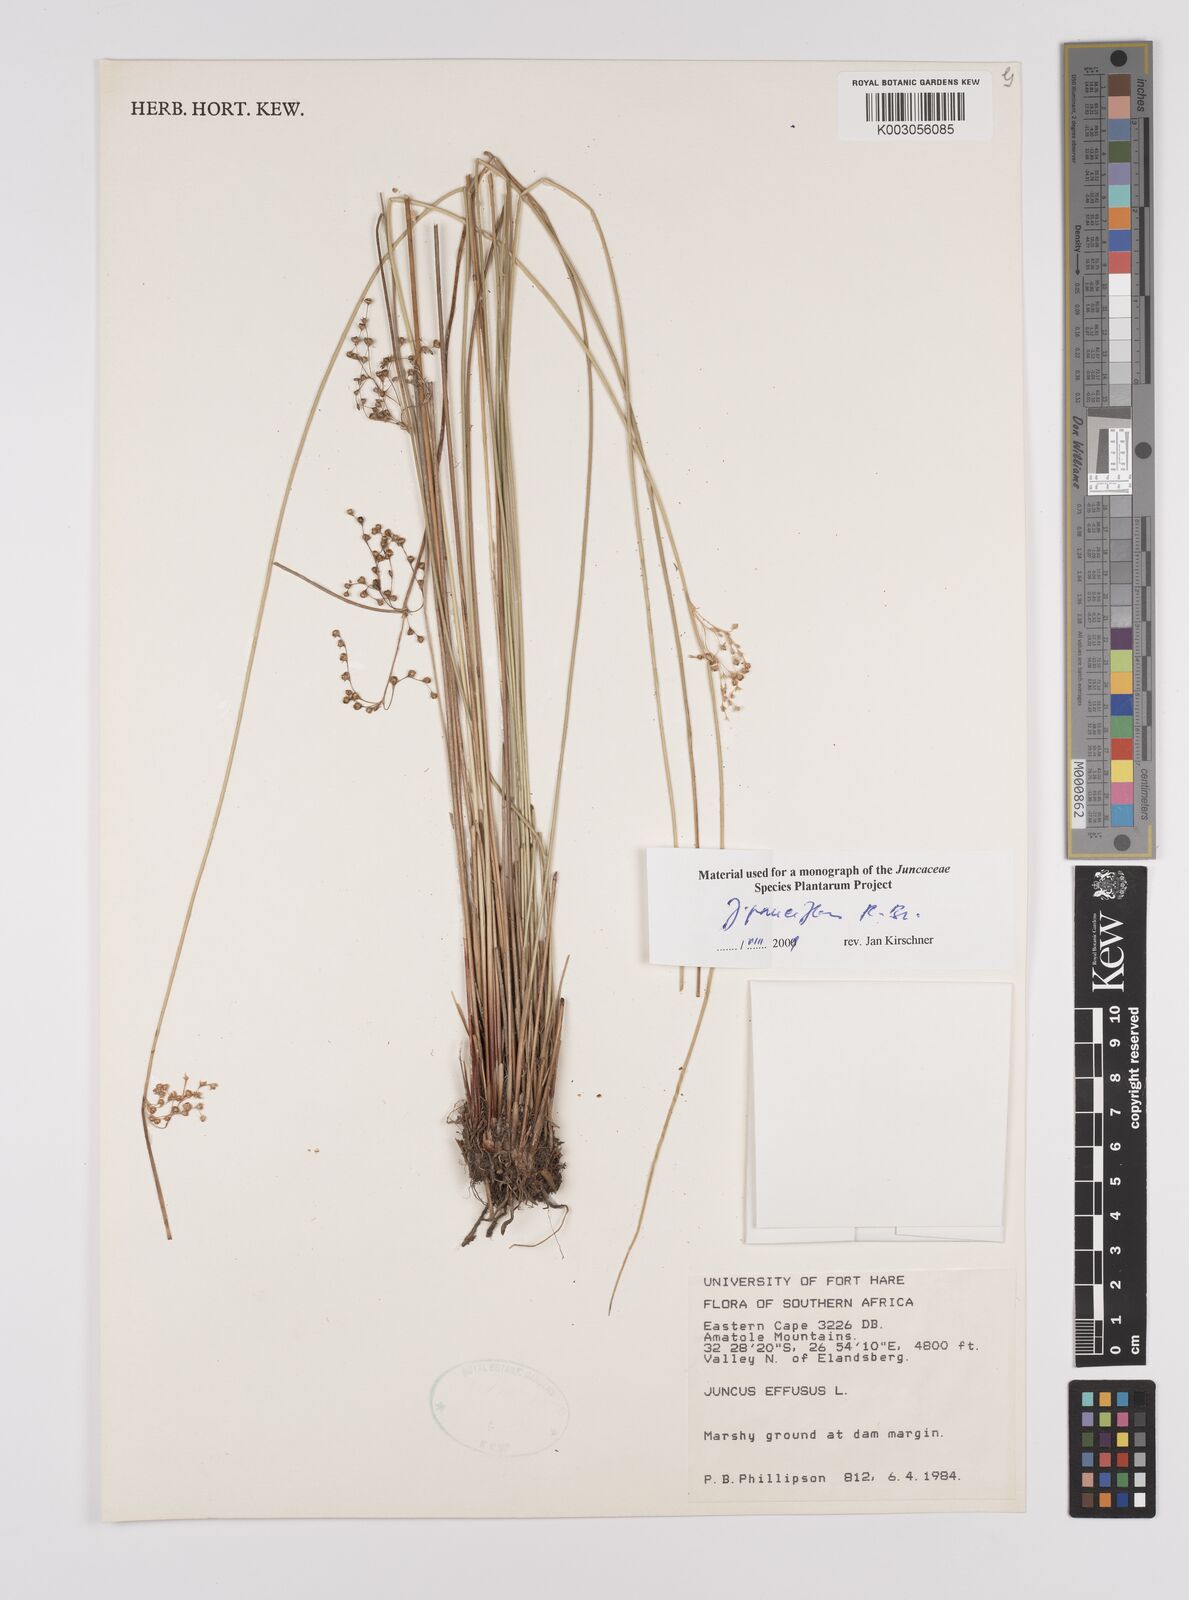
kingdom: Plantae
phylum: Tracheophyta
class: Liliopsida
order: Poales
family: Juncaceae
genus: Juncus
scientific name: Juncus pauciflorus
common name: Loose-flowered rush
